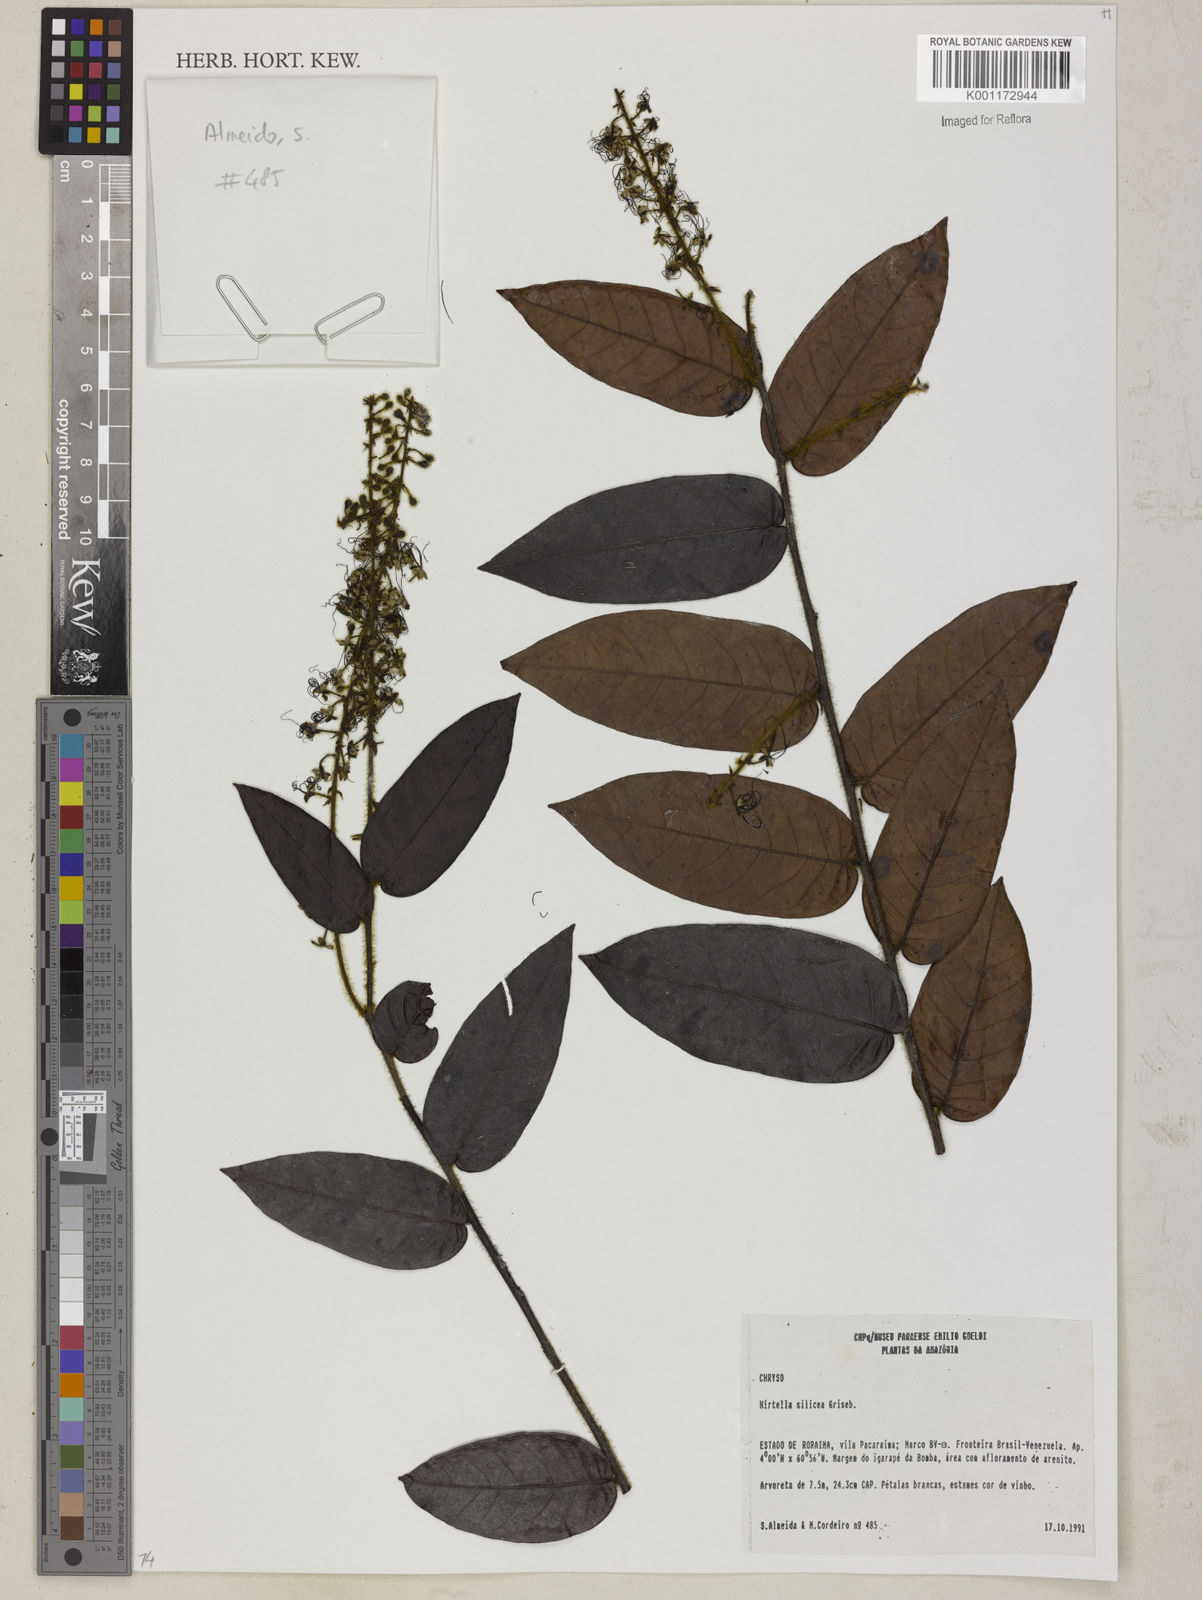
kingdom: Plantae
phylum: Tracheophyta
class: Magnoliopsida
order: Malpighiales
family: Chrysobalanaceae
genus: Hirtella
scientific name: Hirtella silicea
